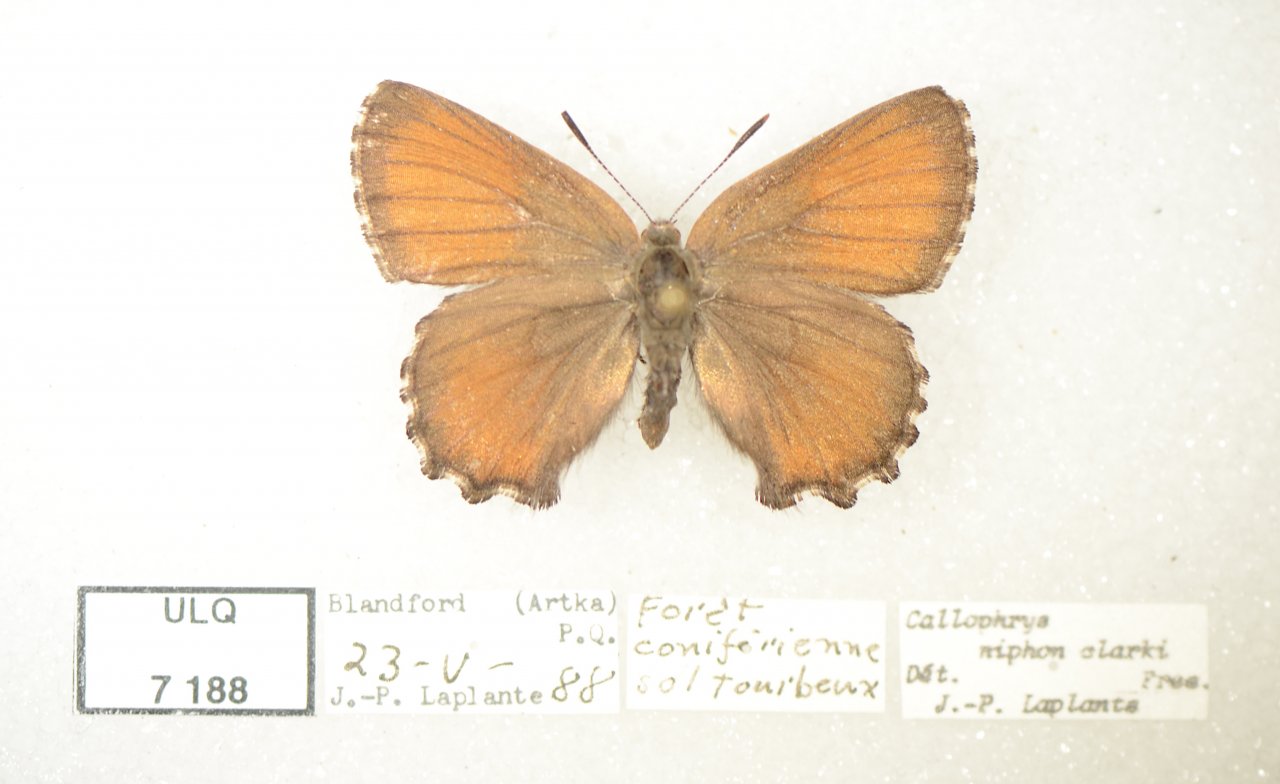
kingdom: Animalia
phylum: Arthropoda
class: Insecta
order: Lepidoptera
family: Lycaenidae
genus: Incisalia
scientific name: Incisalia niphon
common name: Eastern Pine Elfin
